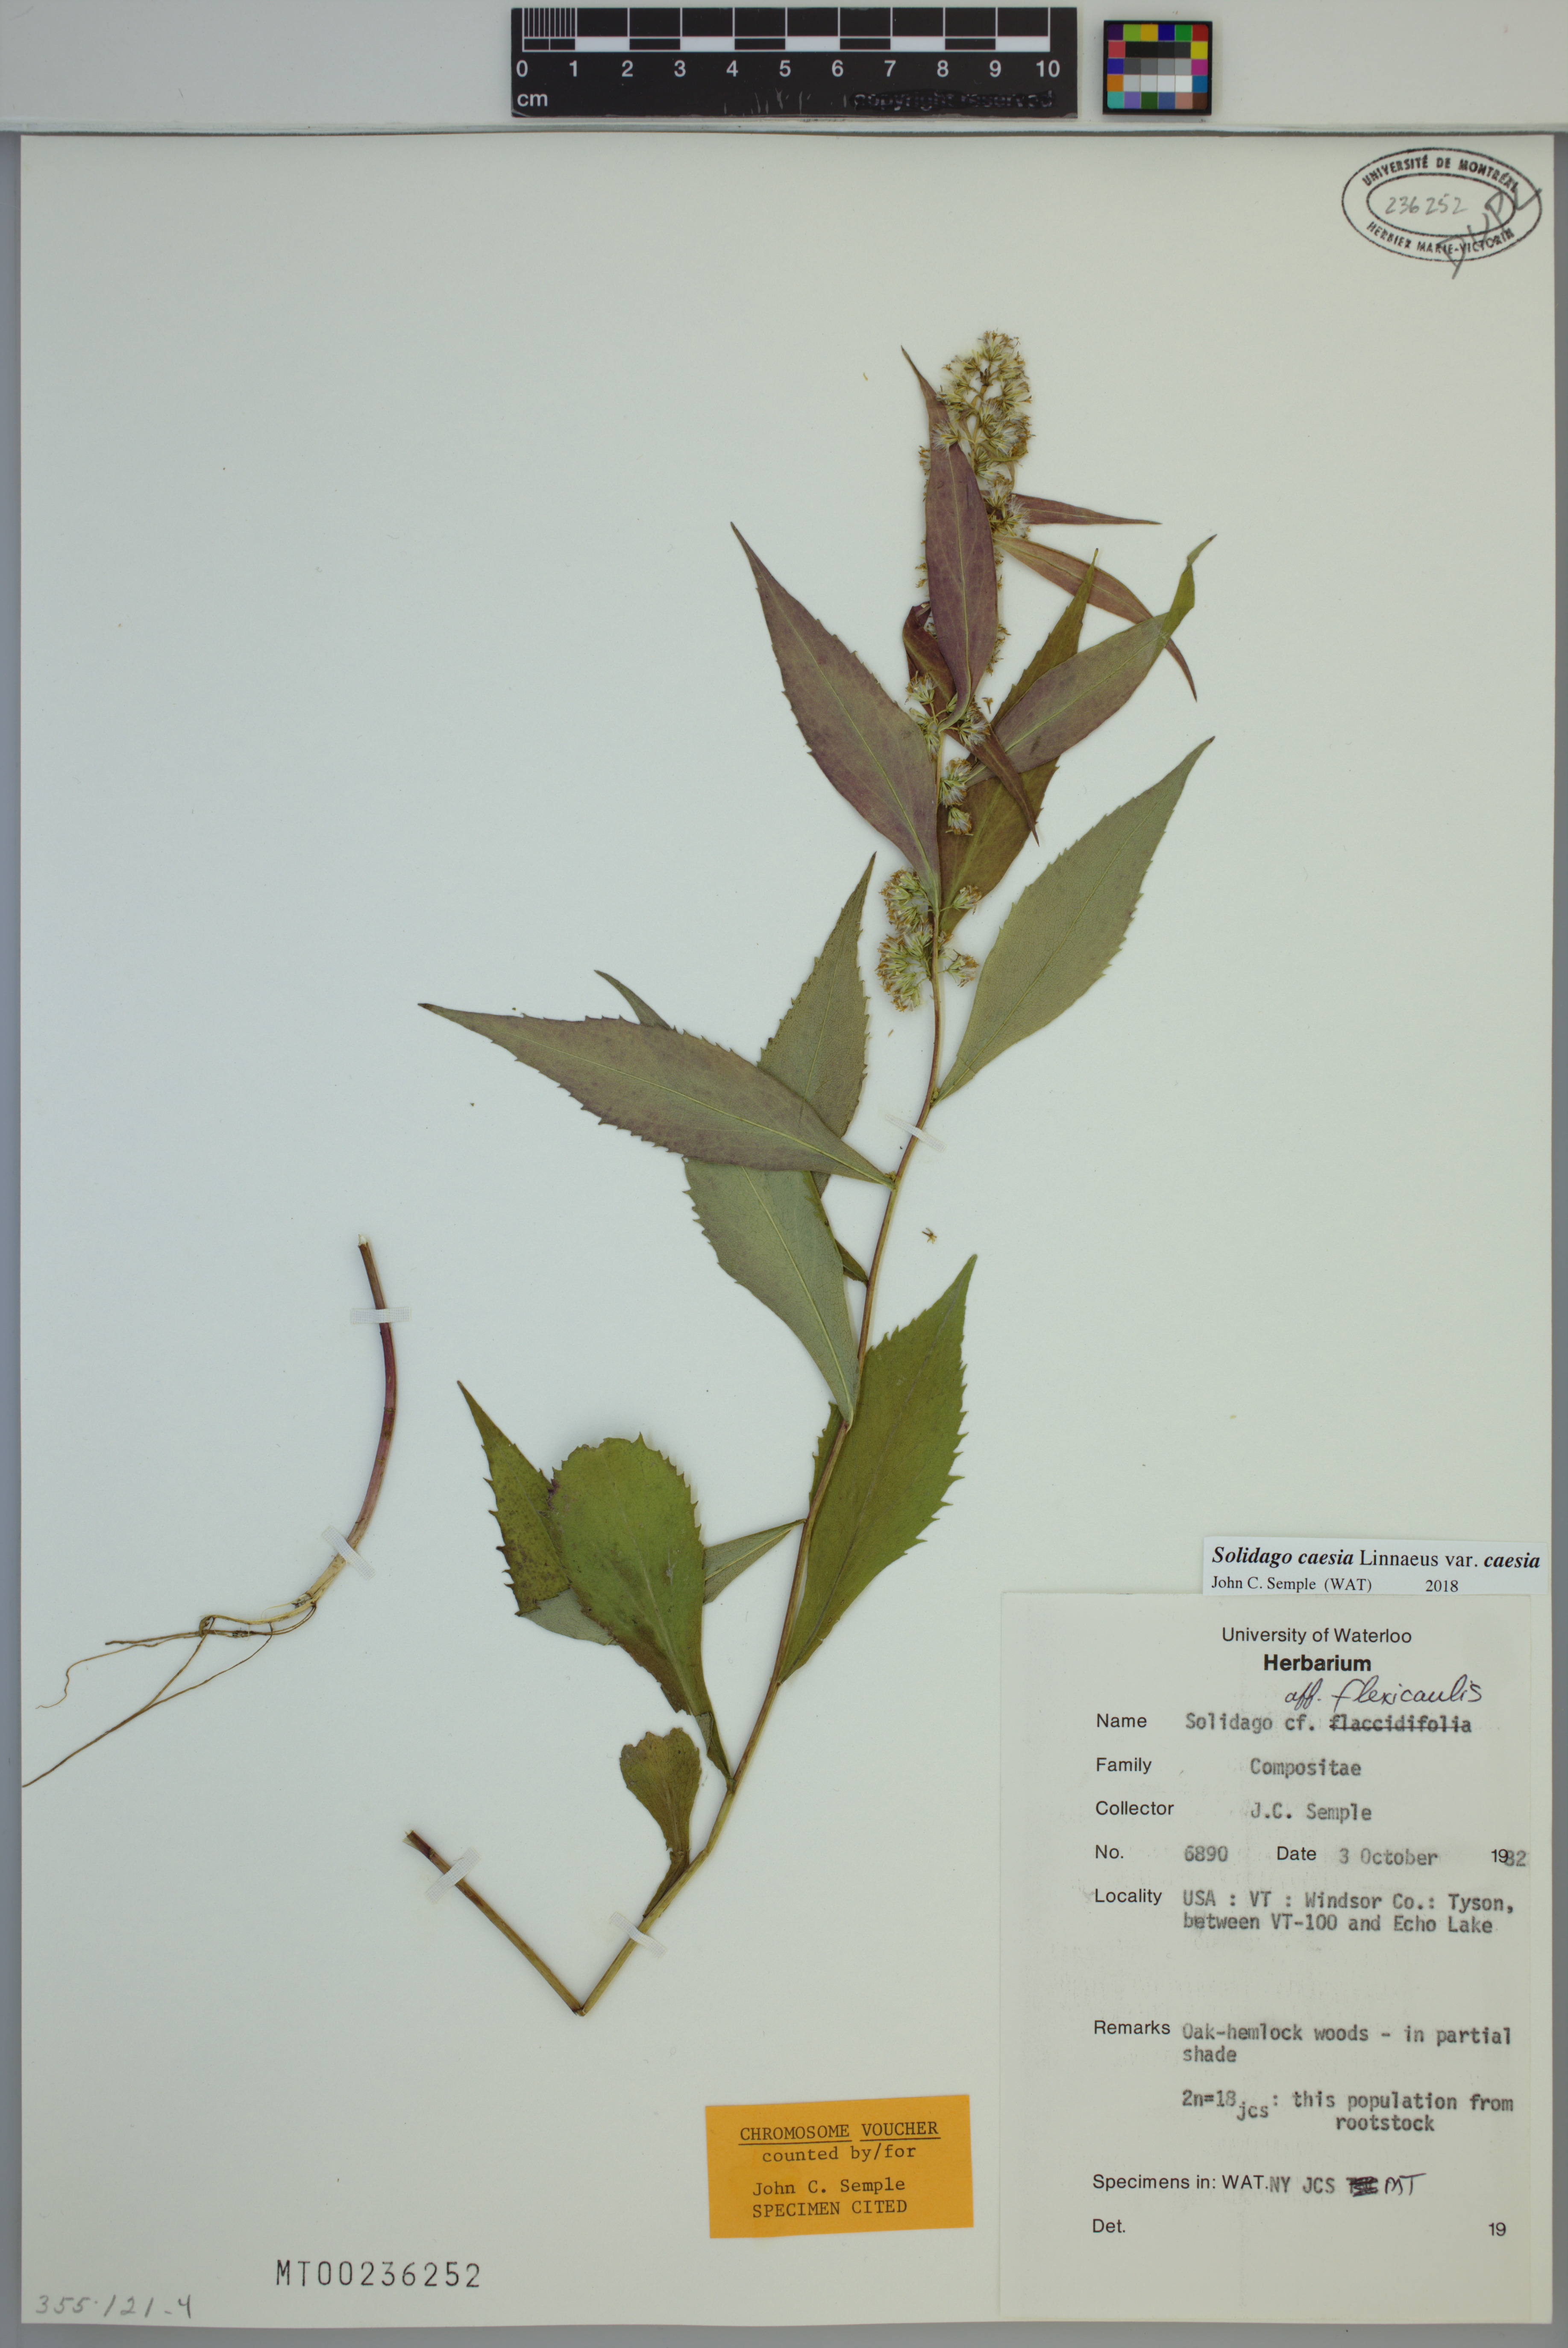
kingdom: Plantae
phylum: Tracheophyta
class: Magnoliopsida
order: Asterales
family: Asteraceae
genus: Solidago
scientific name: Solidago caesia
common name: Woodland goldenrod
